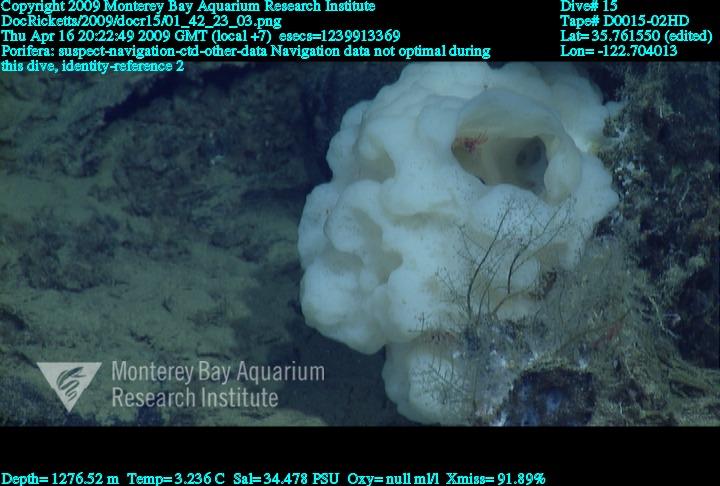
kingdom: Animalia
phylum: Porifera
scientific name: Porifera
